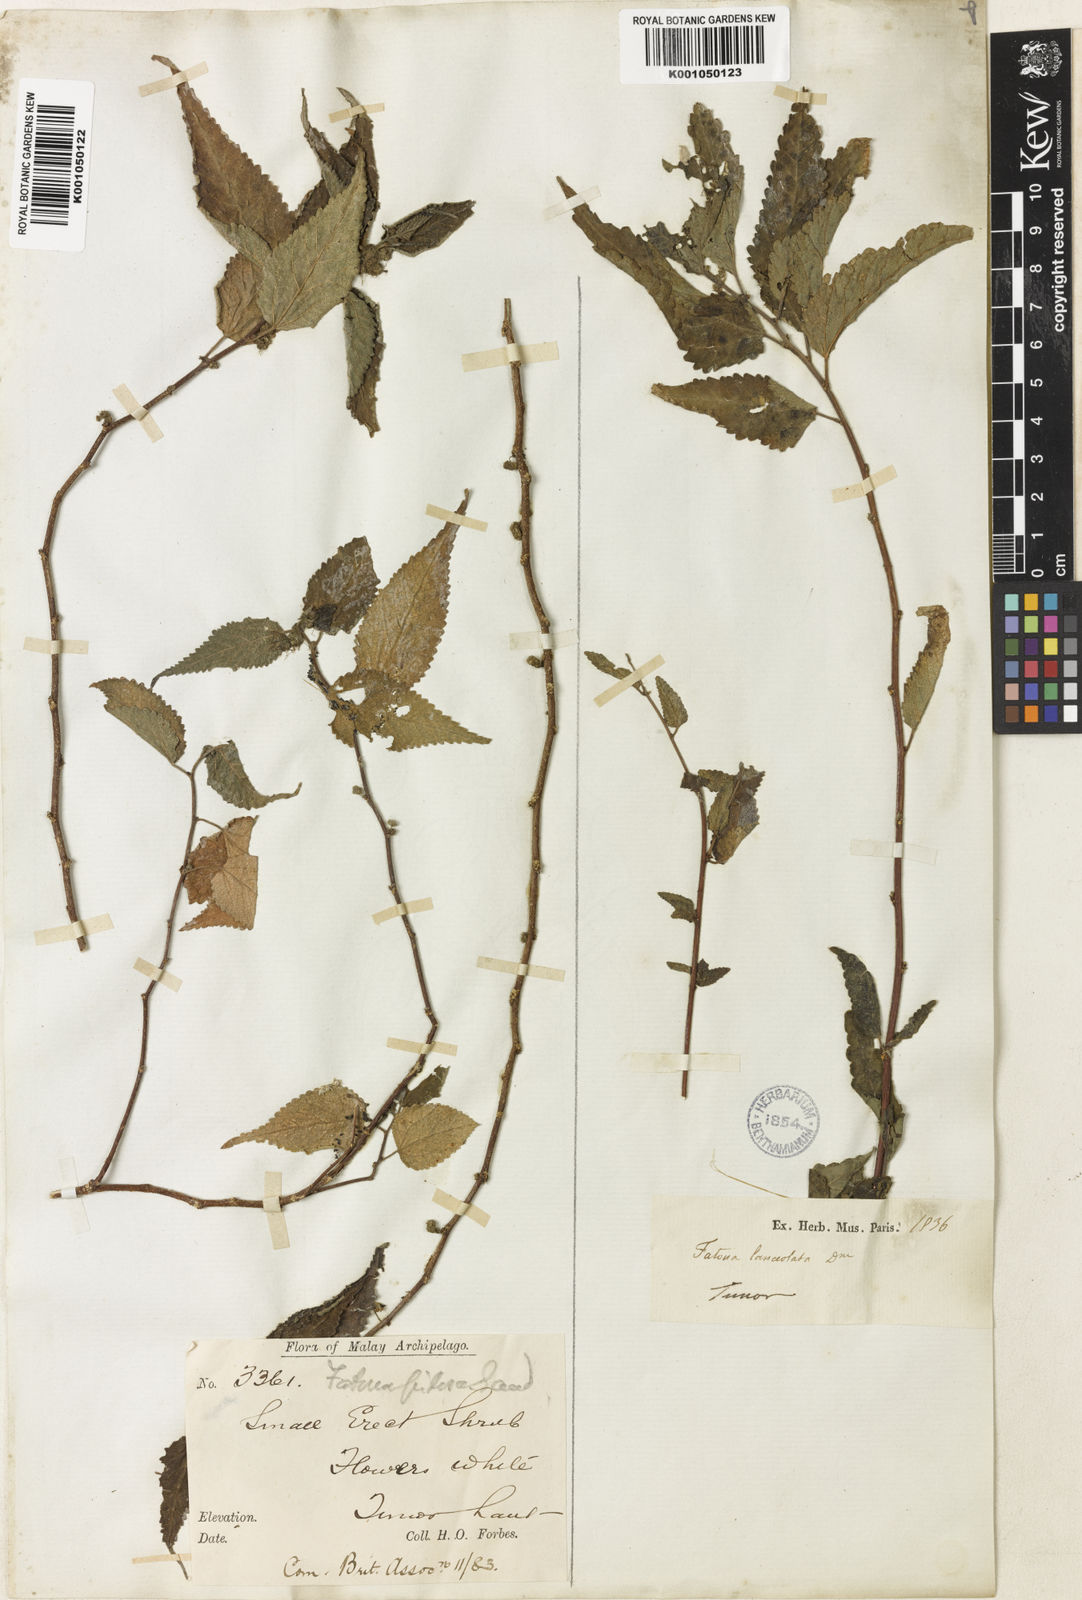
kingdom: Plantae
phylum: Tracheophyta
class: Magnoliopsida
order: Rosales
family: Moraceae
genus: Fatoua
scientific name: Fatoua villosa
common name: Hairy crabweed
